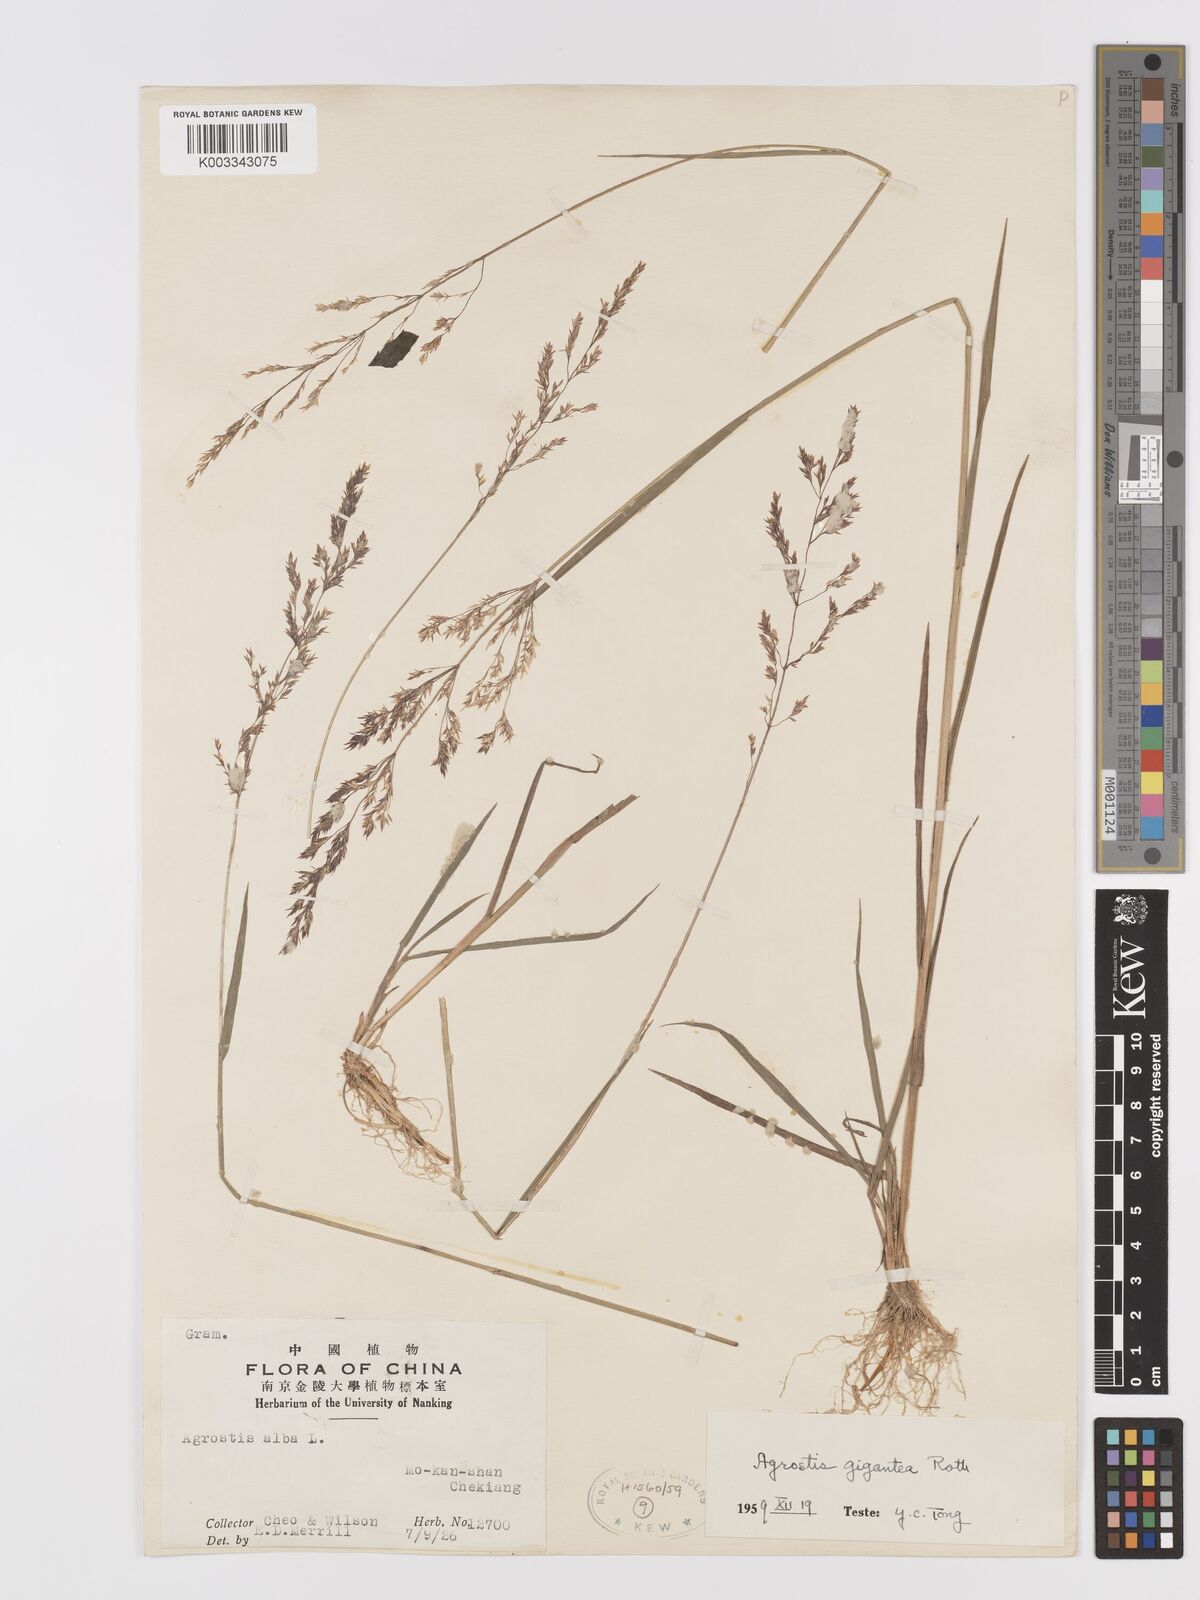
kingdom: Plantae
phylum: Tracheophyta
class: Liliopsida
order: Poales
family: Poaceae
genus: Agrostis
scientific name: Agrostis gigantea
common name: Black bent
